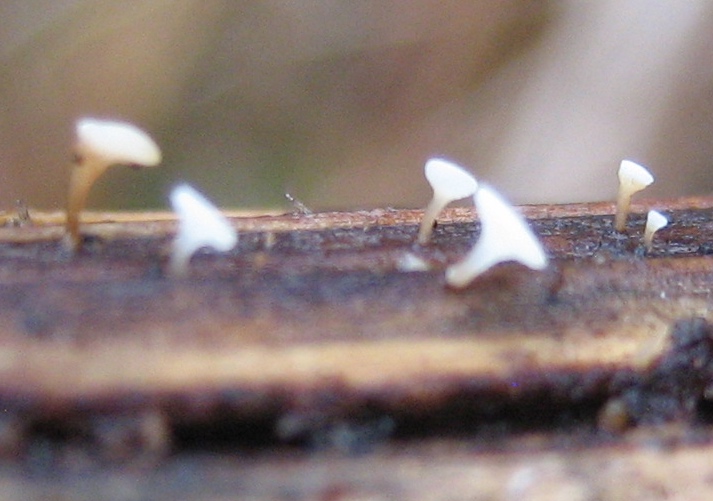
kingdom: Fungi
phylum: Ascomycota
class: Leotiomycetes
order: Helotiales
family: Helotiaceae
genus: Hymenoscyphus
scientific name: Hymenoscyphus
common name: stilkskive
